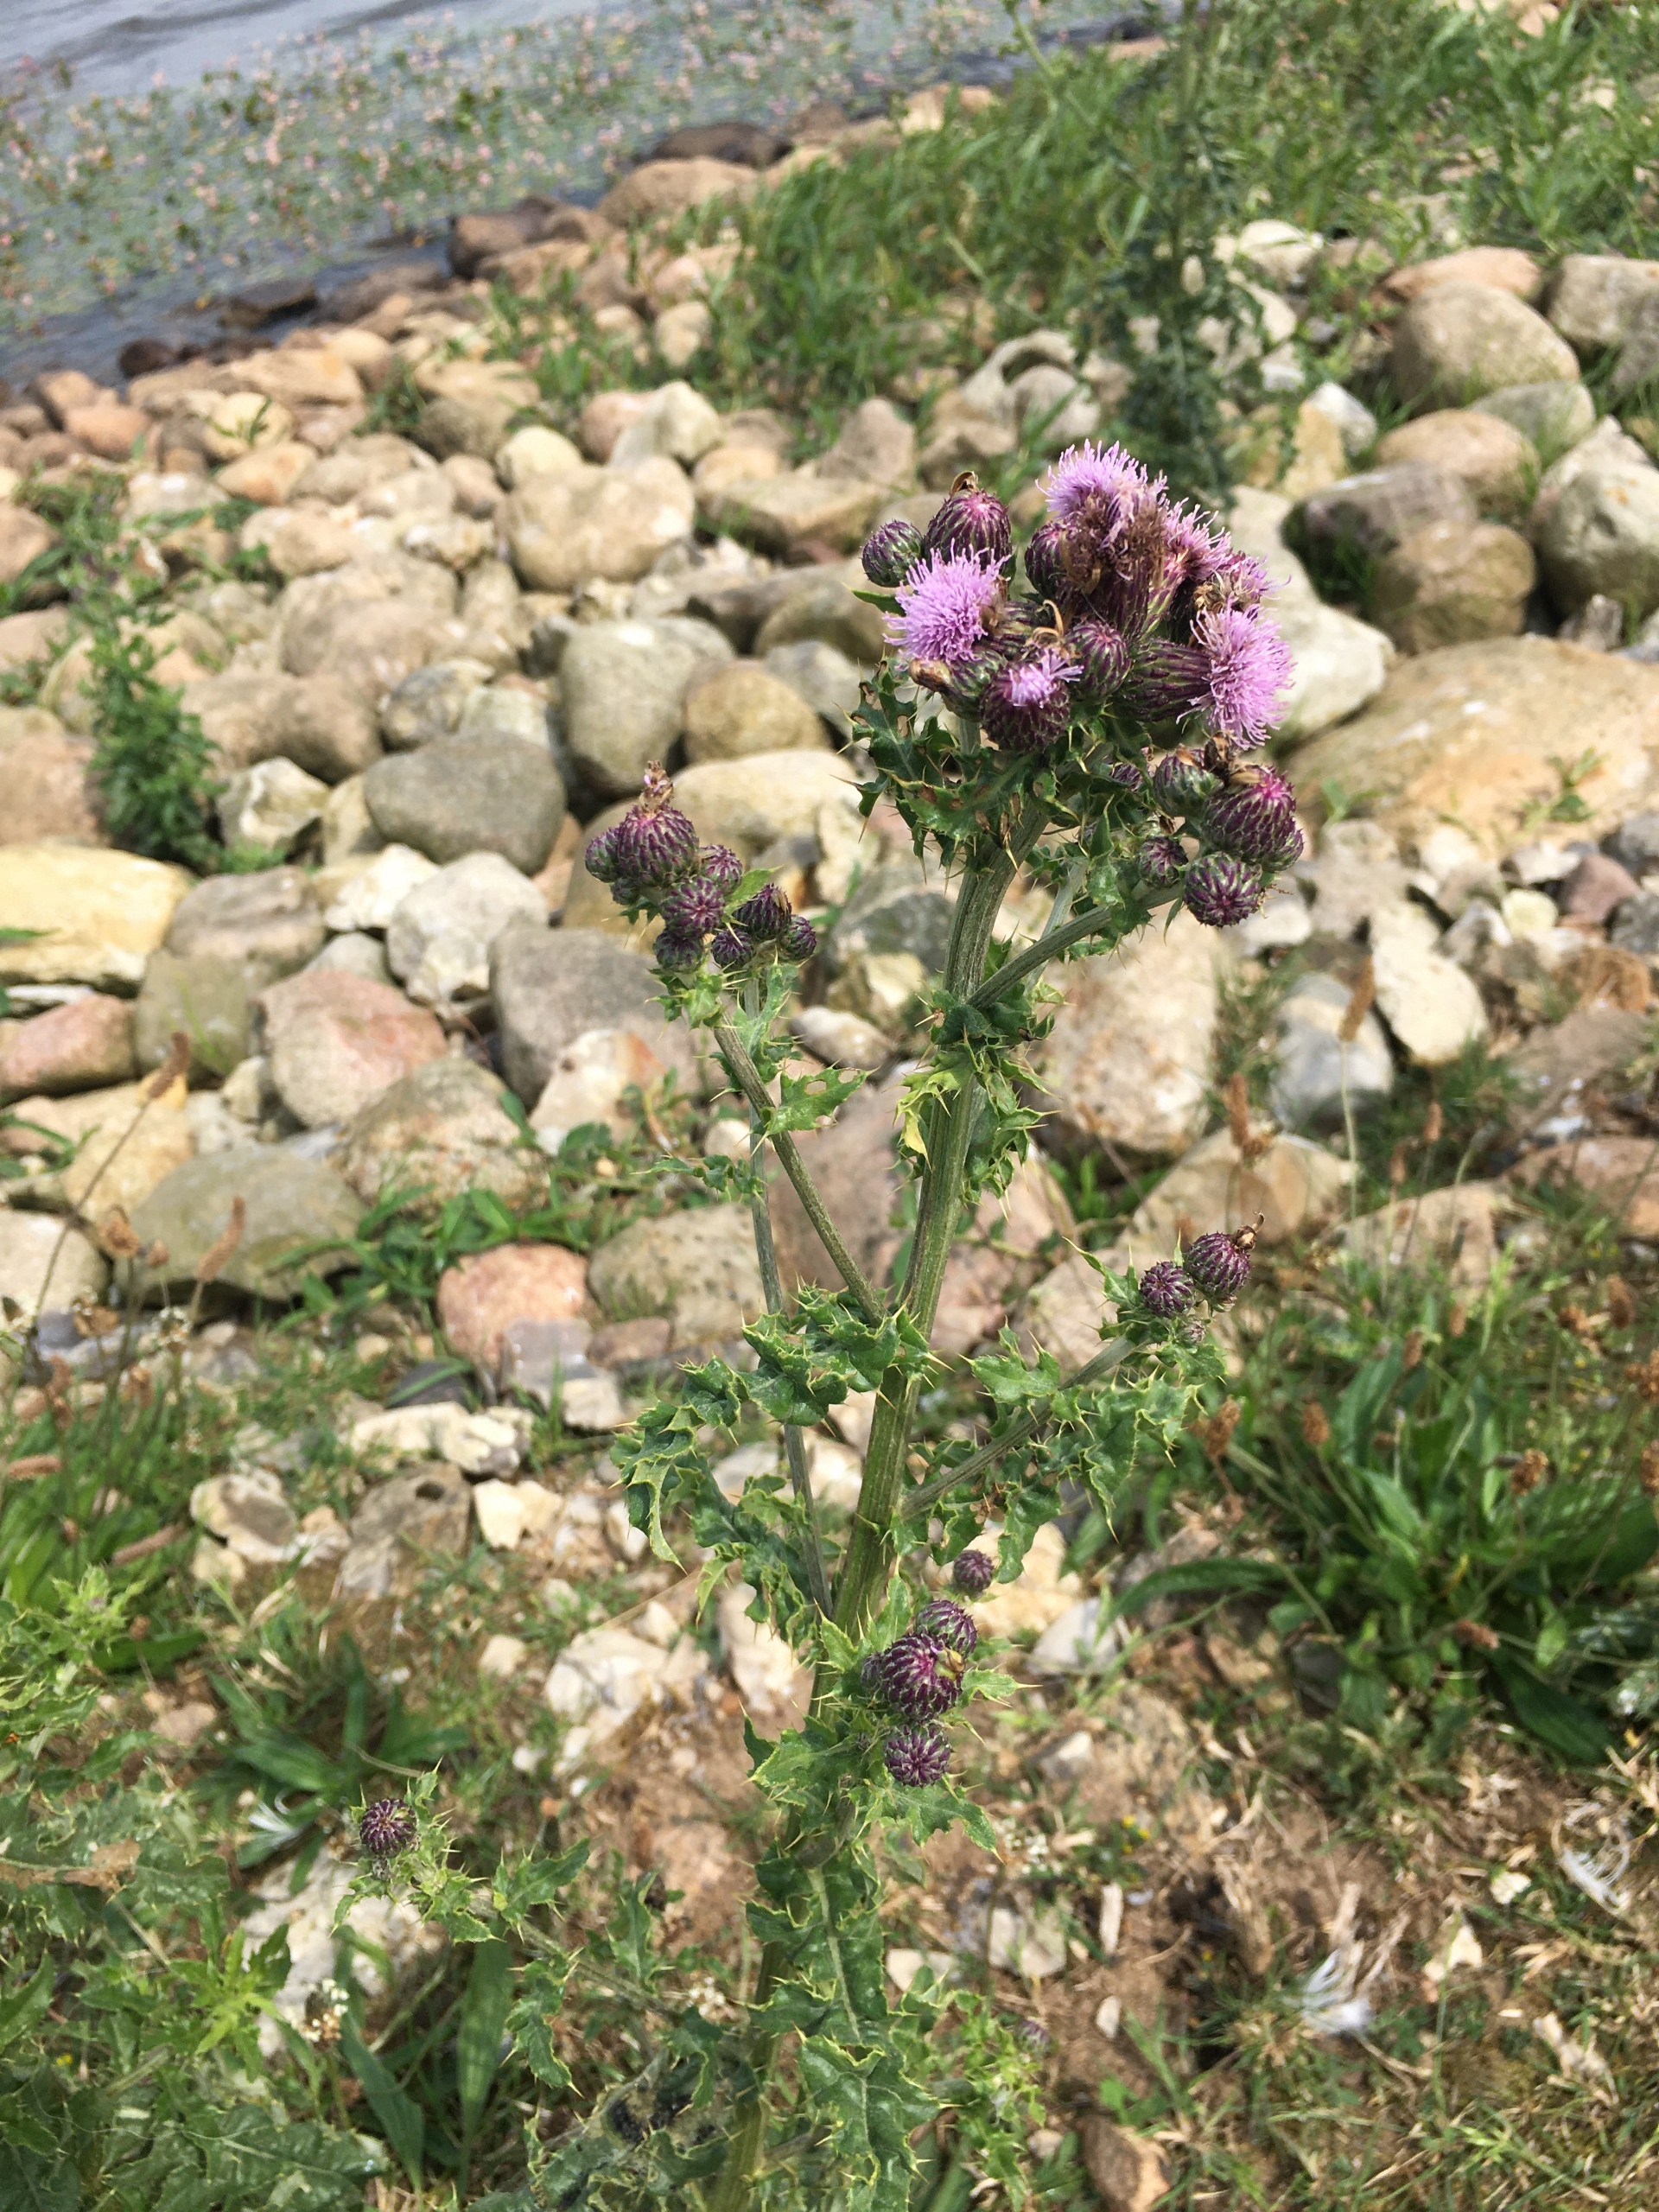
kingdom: Plantae
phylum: Tracheophyta
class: Magnoliopsida
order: Asterales
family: Asteraceae
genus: Cirsium
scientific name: Cirsium arvense
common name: Ager-tidsel
